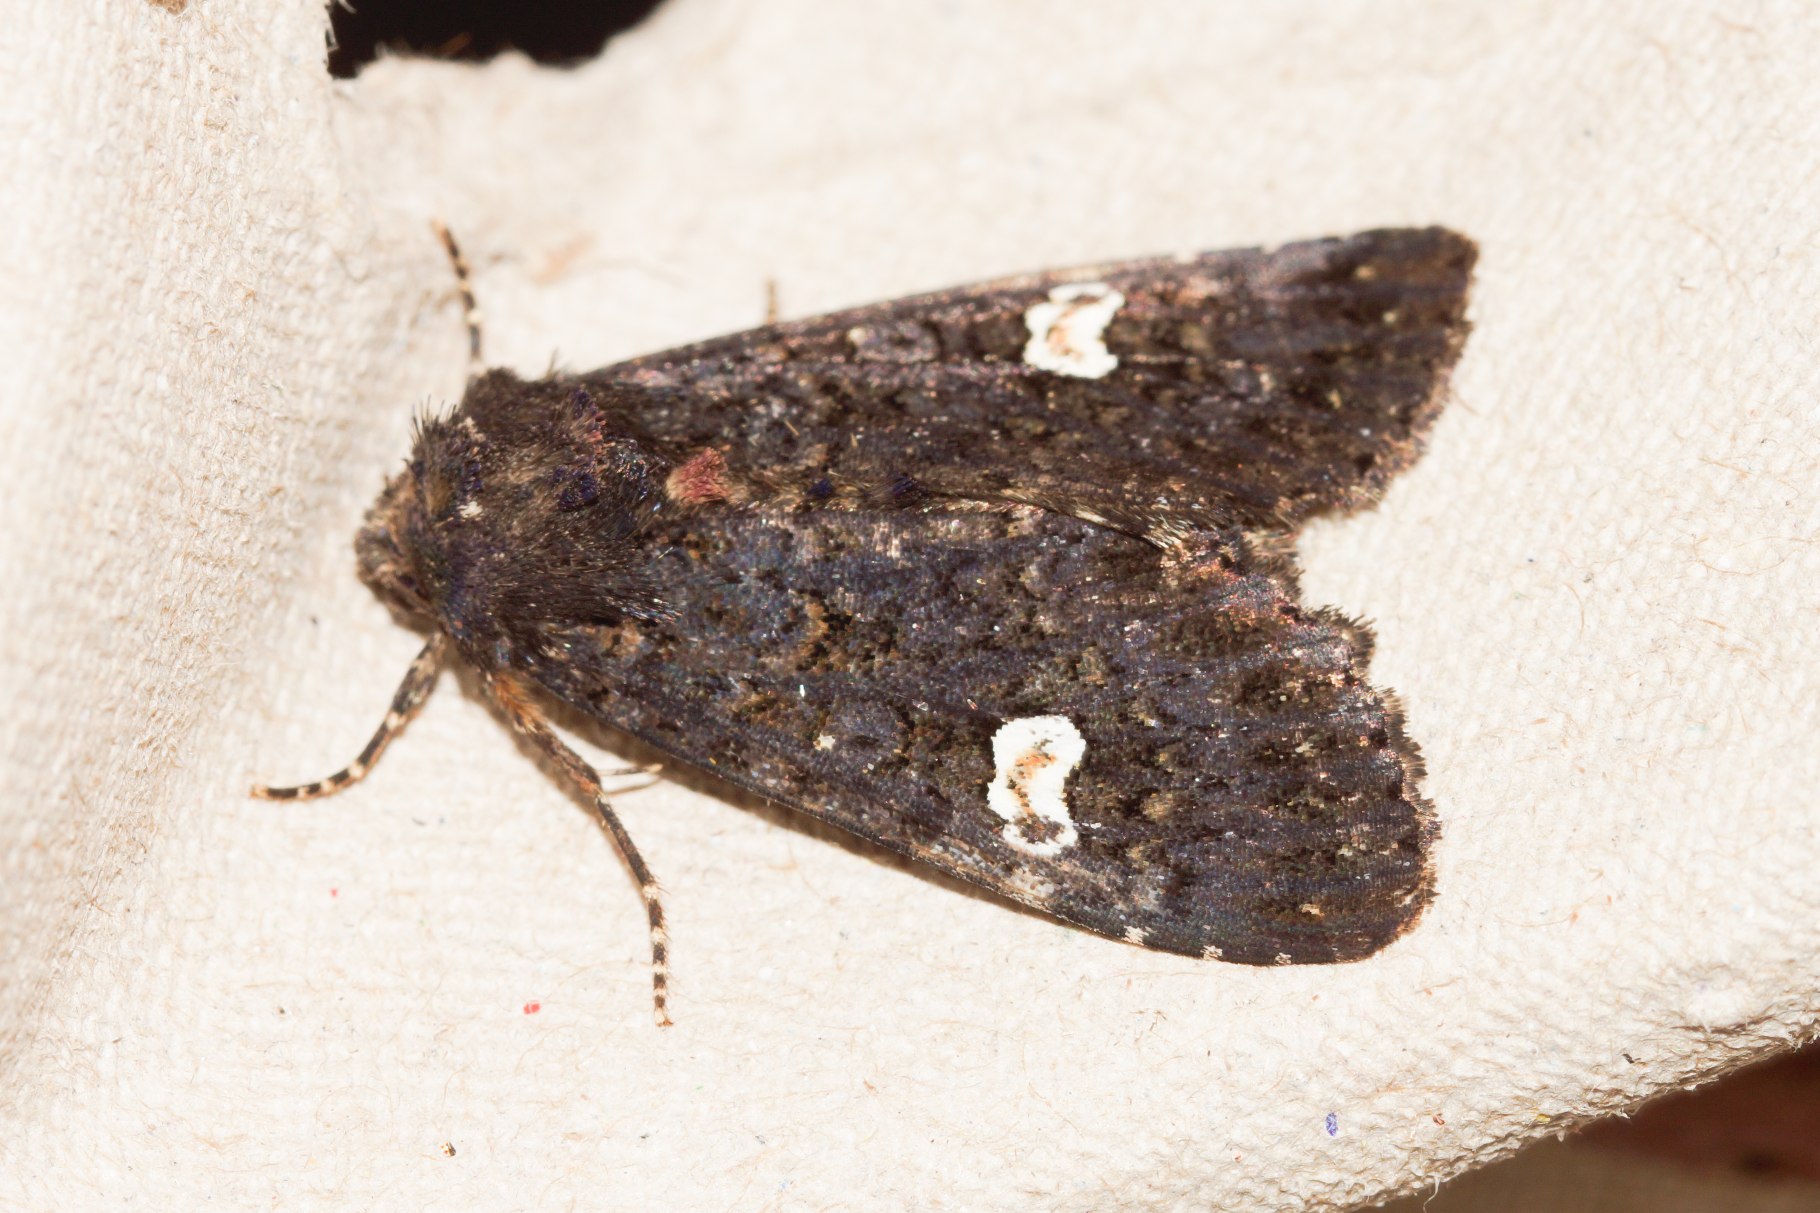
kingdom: Animalia
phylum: Arthropoda
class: Insecta
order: Lepidoptera
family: Noctuidae
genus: Melanchra
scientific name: Melanchra persicariae
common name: Pileurtugle
